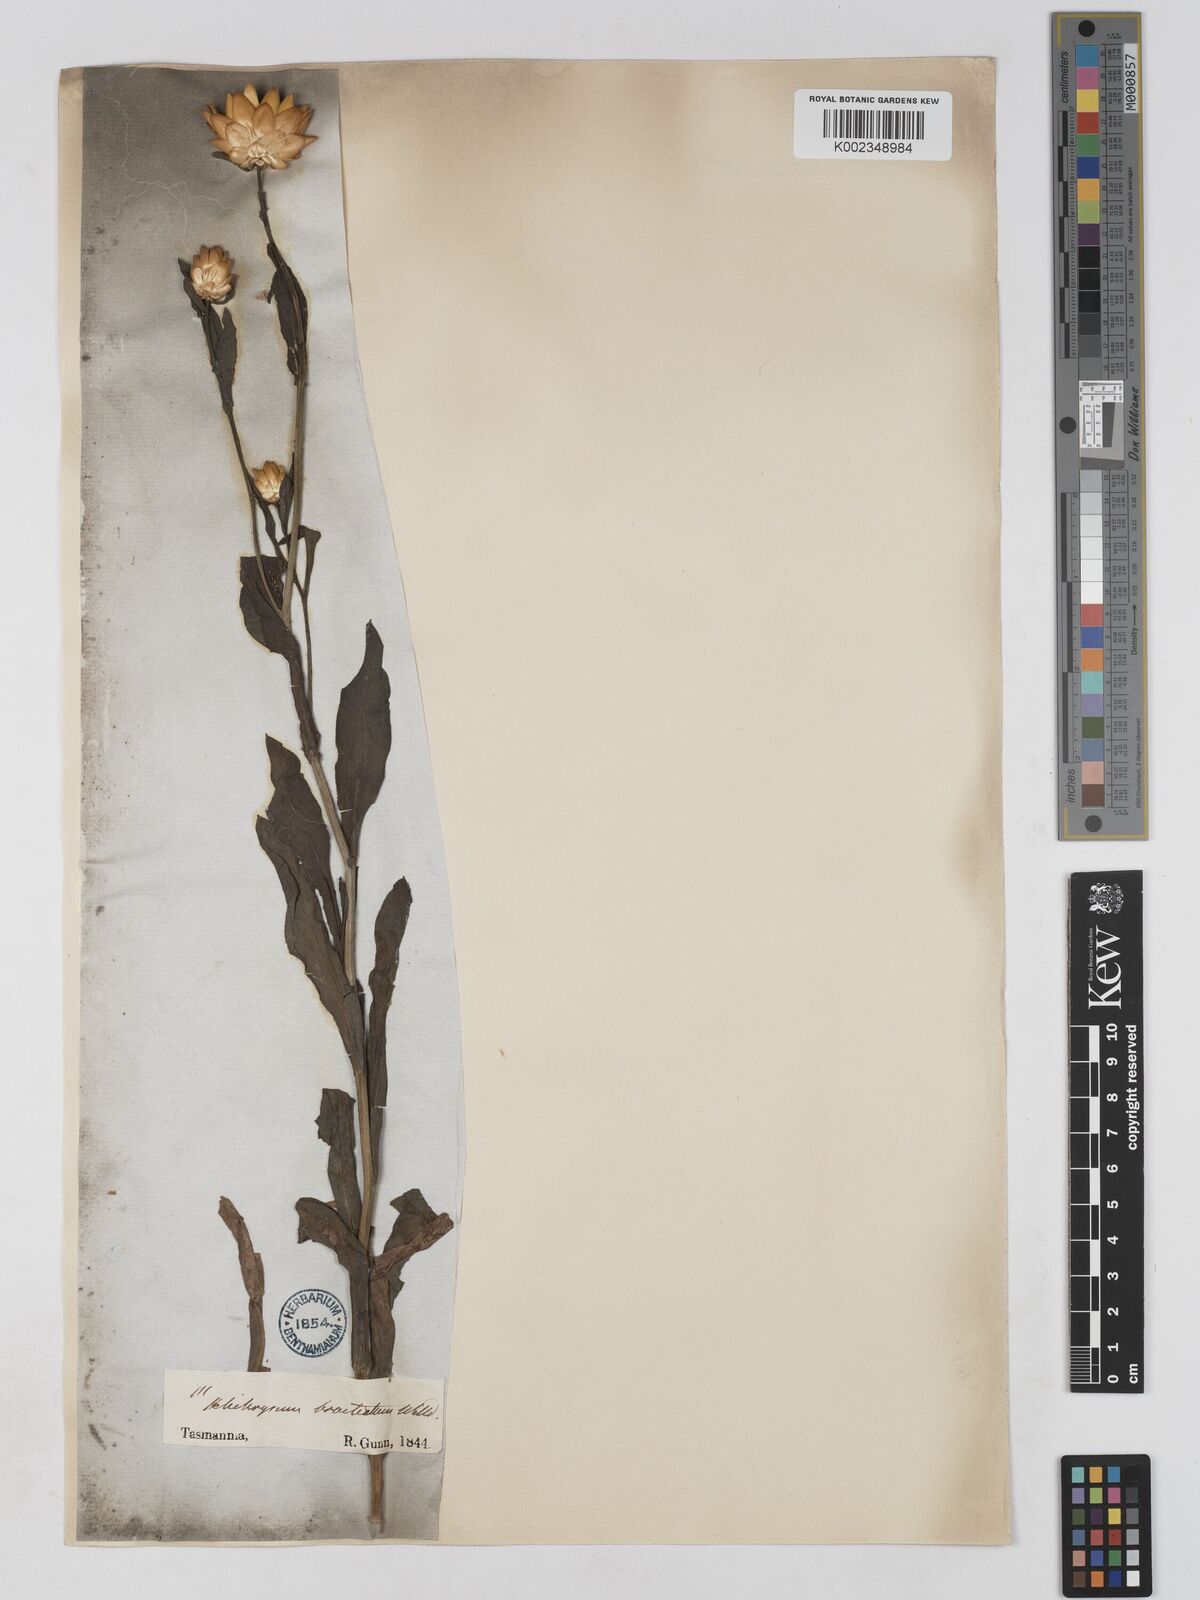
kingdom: Plantae
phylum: Tracheophyta
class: Magnoliopsida
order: Asterales
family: Asteraceae
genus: Xerochrysum
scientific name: Xerochrysum bracteatum
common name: Bracted strawflower
